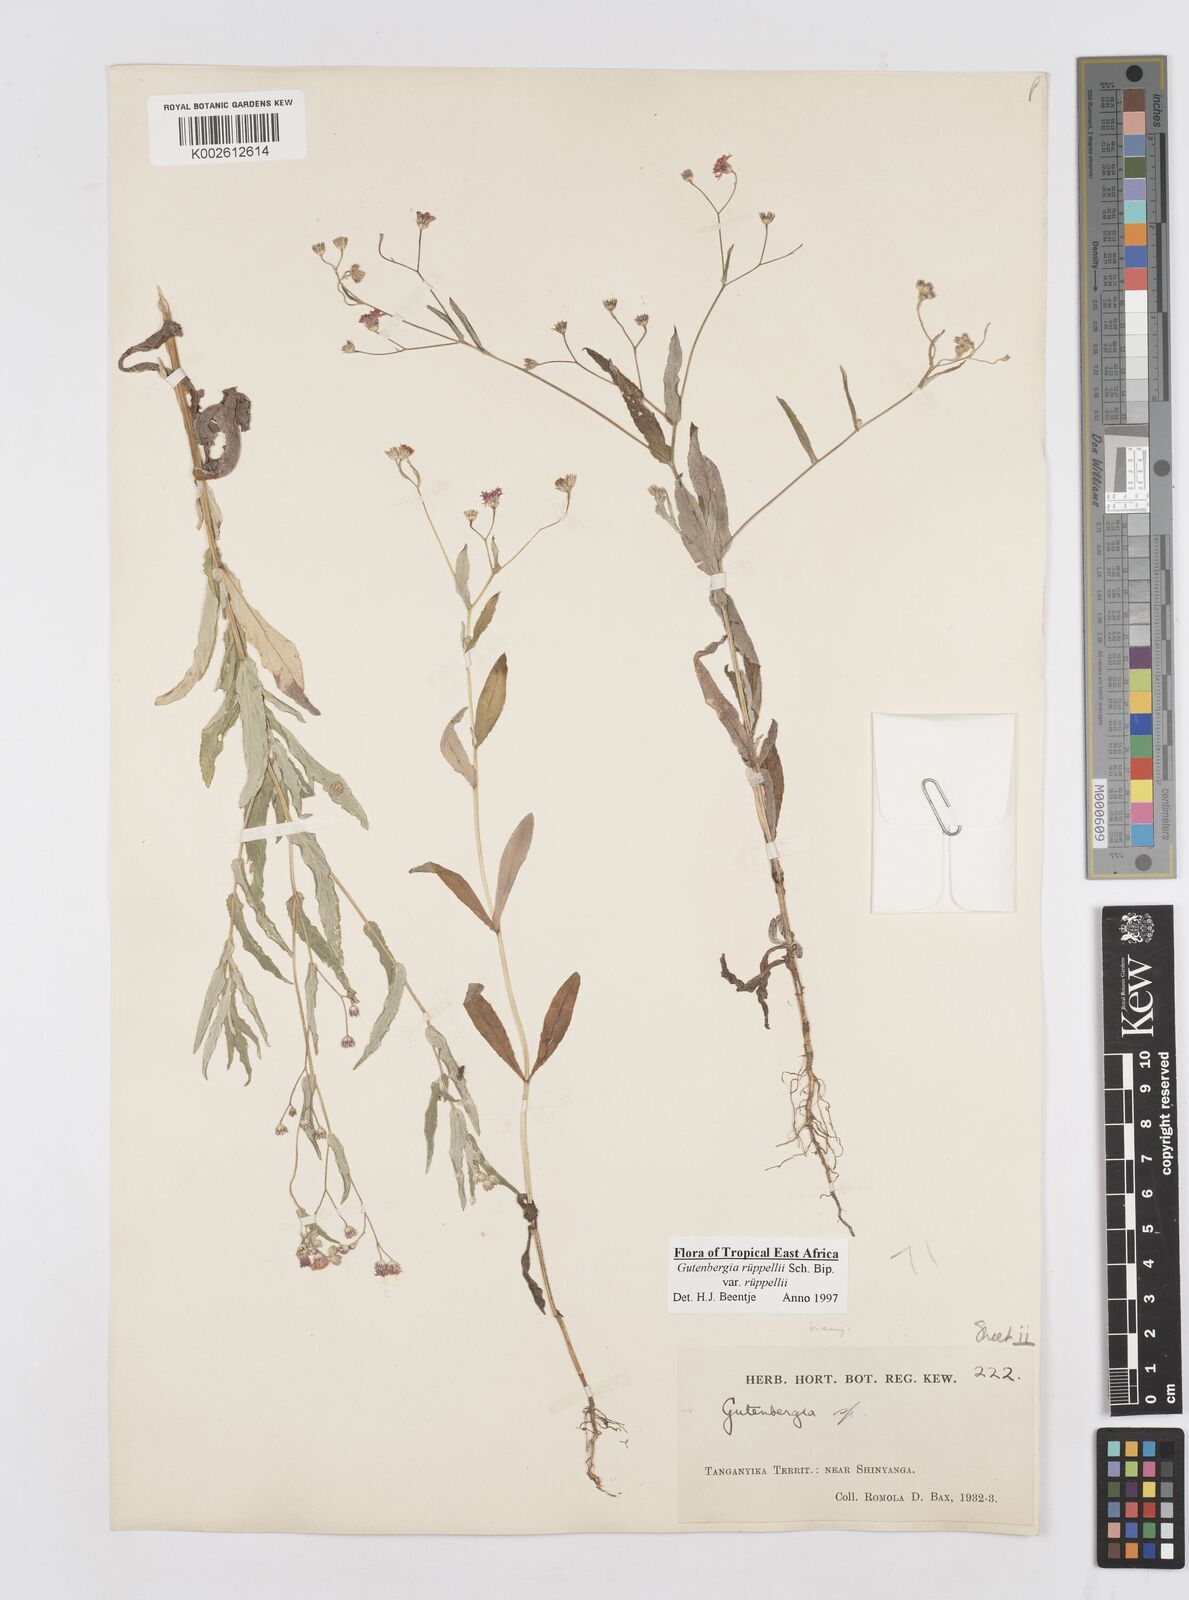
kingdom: Plantae
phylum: Tracheophyta
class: Magnoliopsida
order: Asterales
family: Asteraceae
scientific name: Asteraceae
